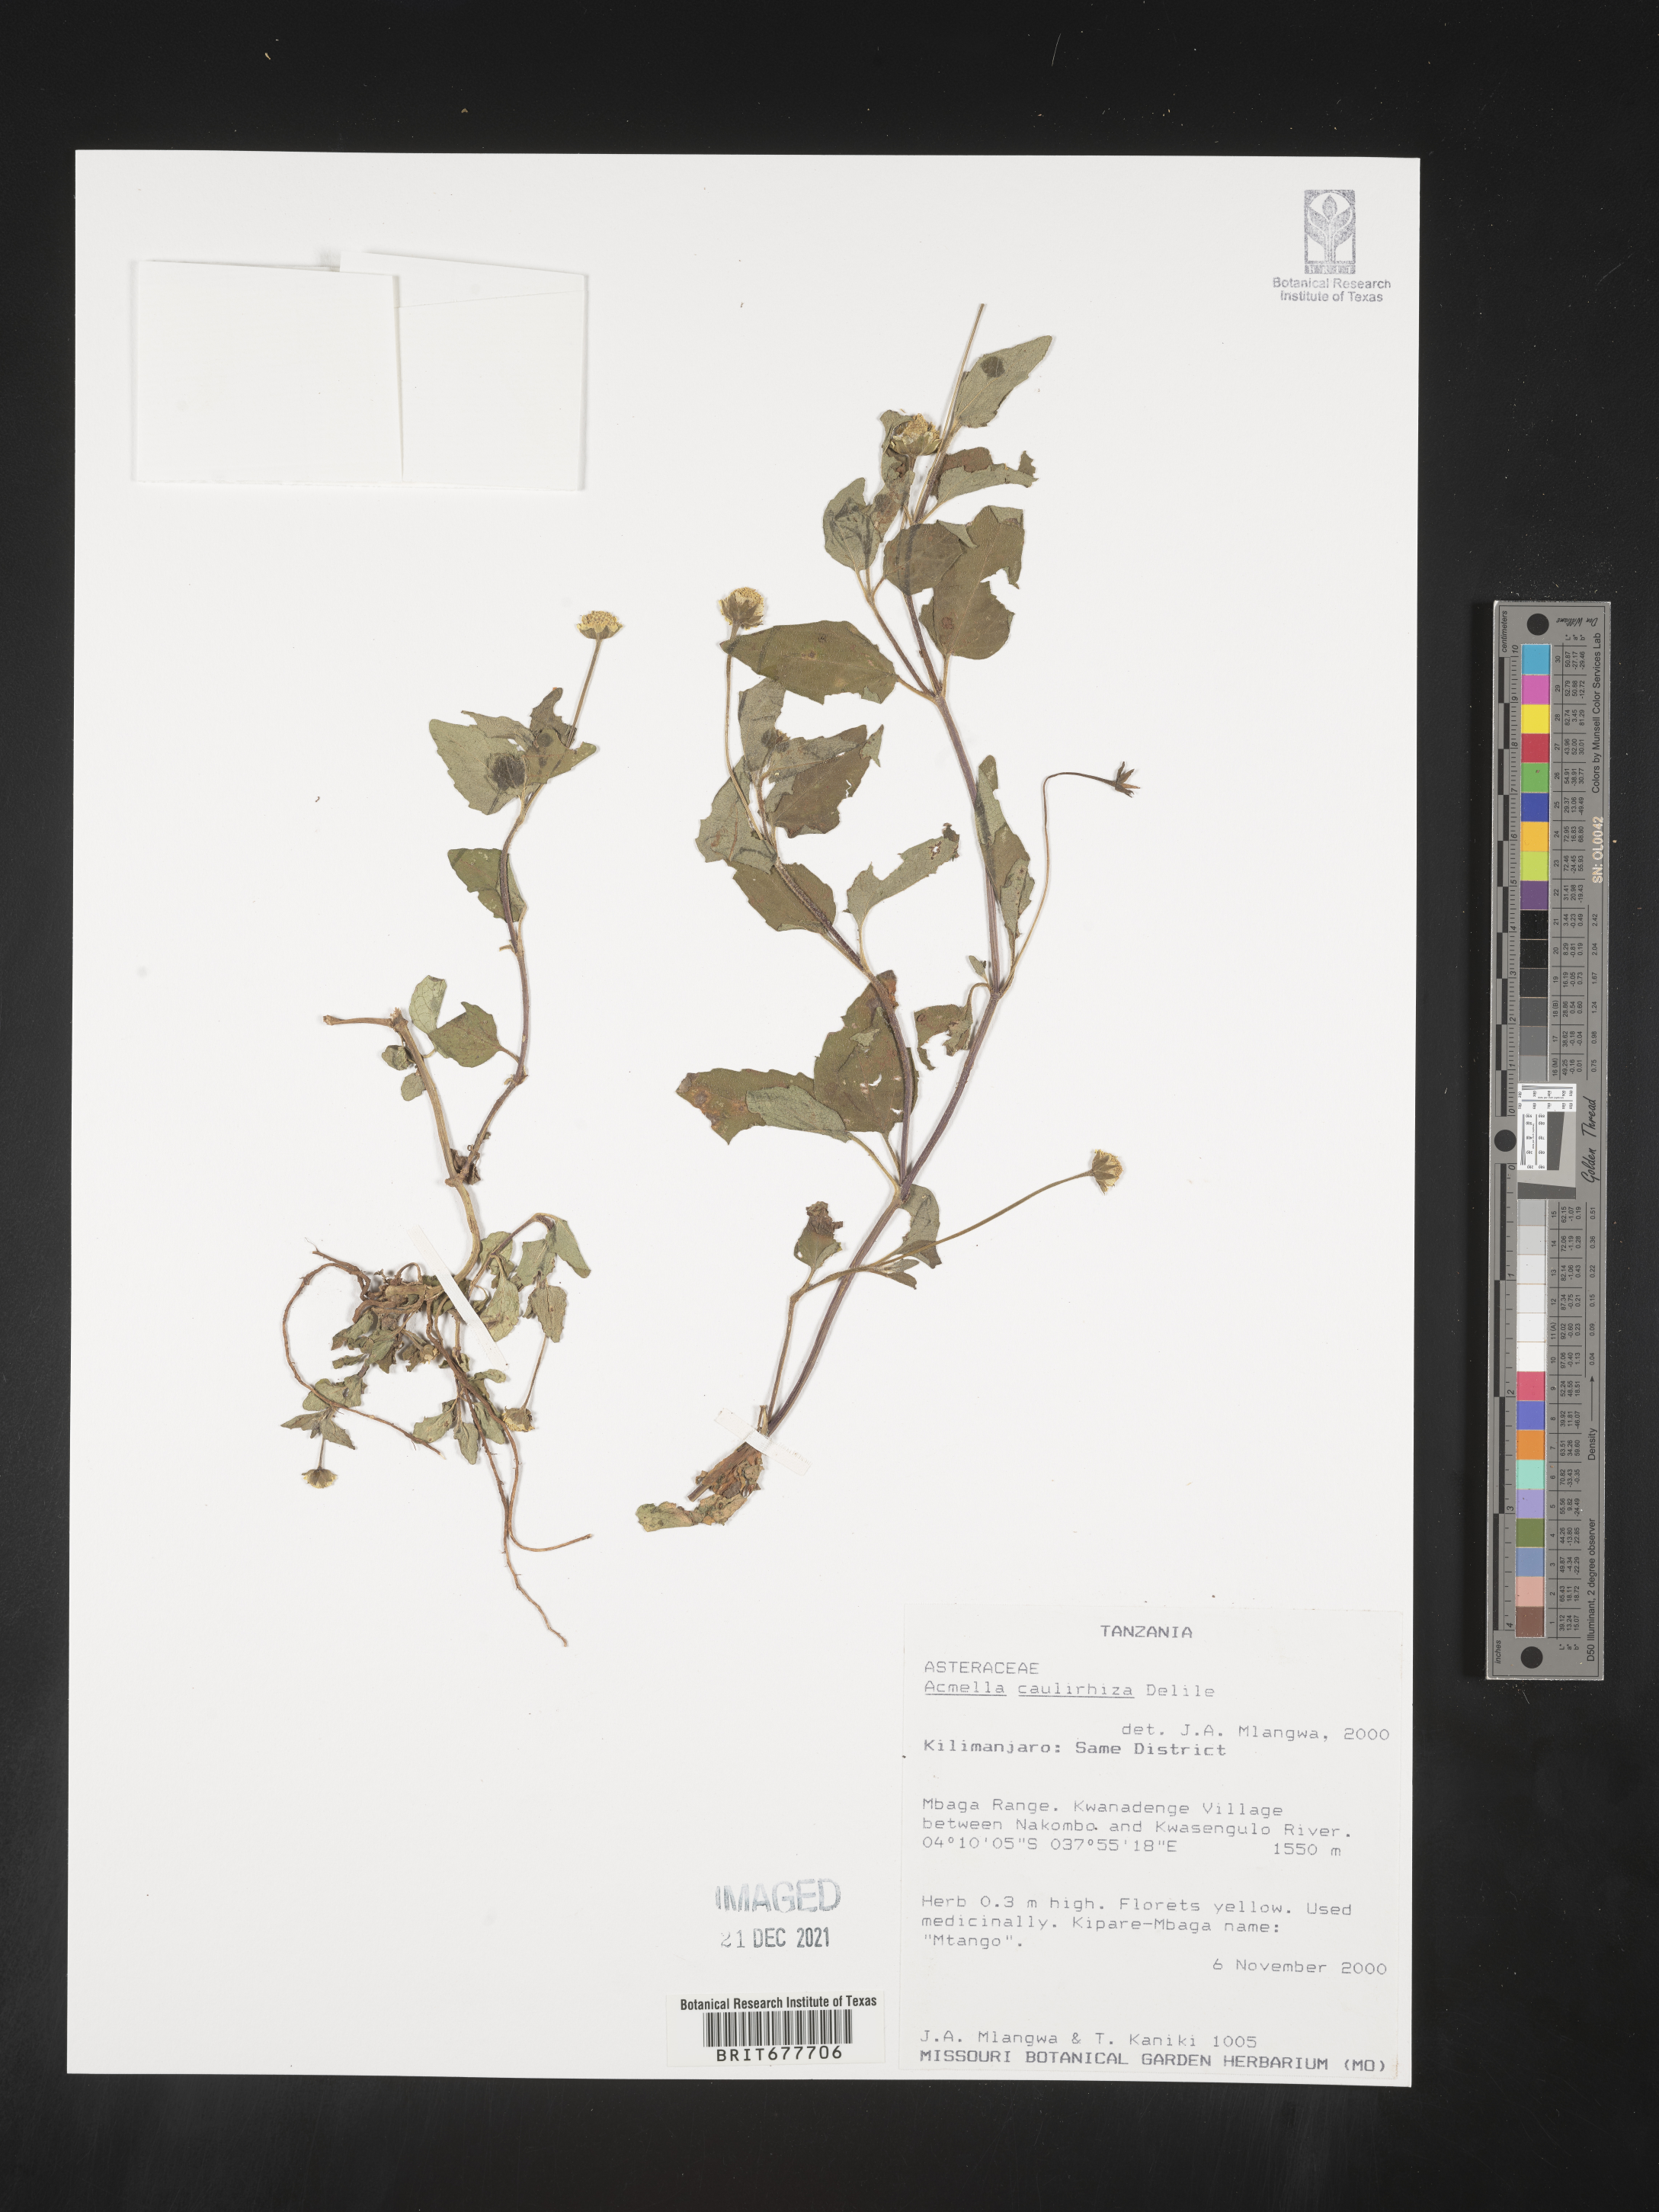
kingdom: Plantae
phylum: Tracheophyta
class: Magnoliopsida
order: Asterales
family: Asteraceae
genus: Acmella
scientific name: Acmella
